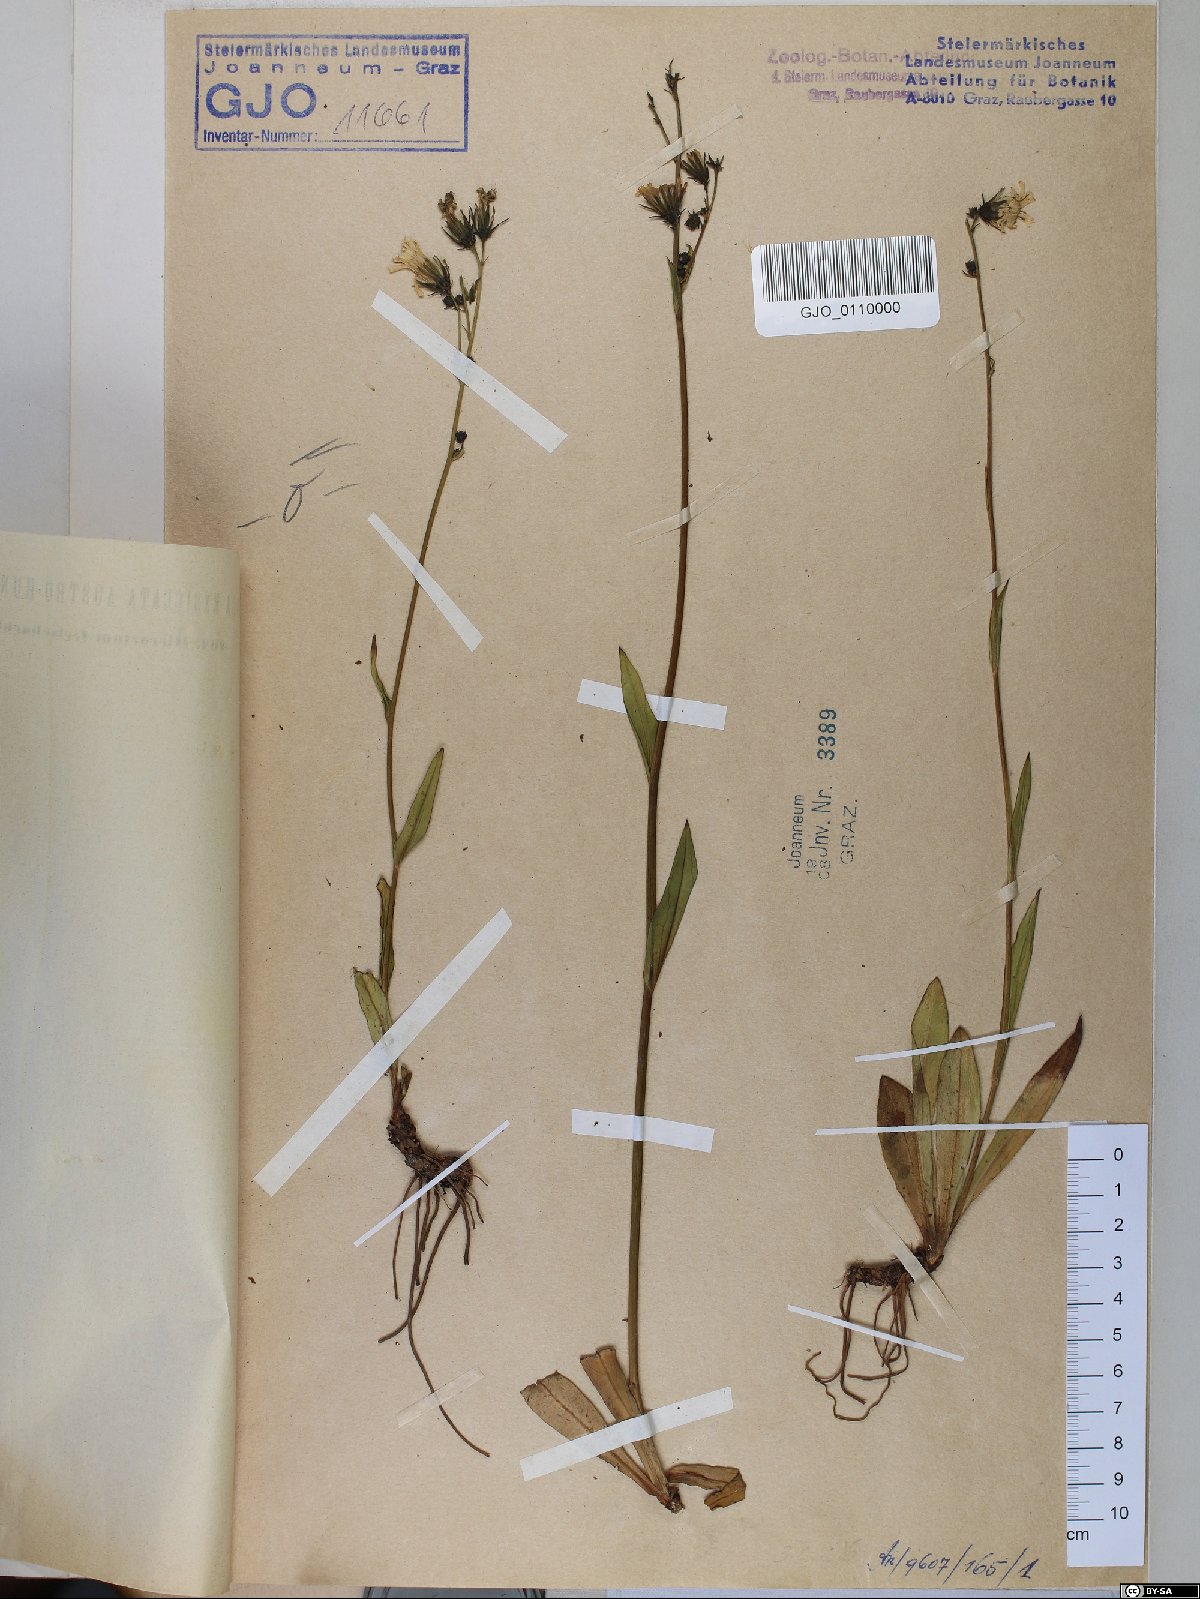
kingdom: Plantae
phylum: Tracheophyta
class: Magnoliopsida
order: Asterales
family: Asteraceae
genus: Hieracium
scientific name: Hieracium sparsum
